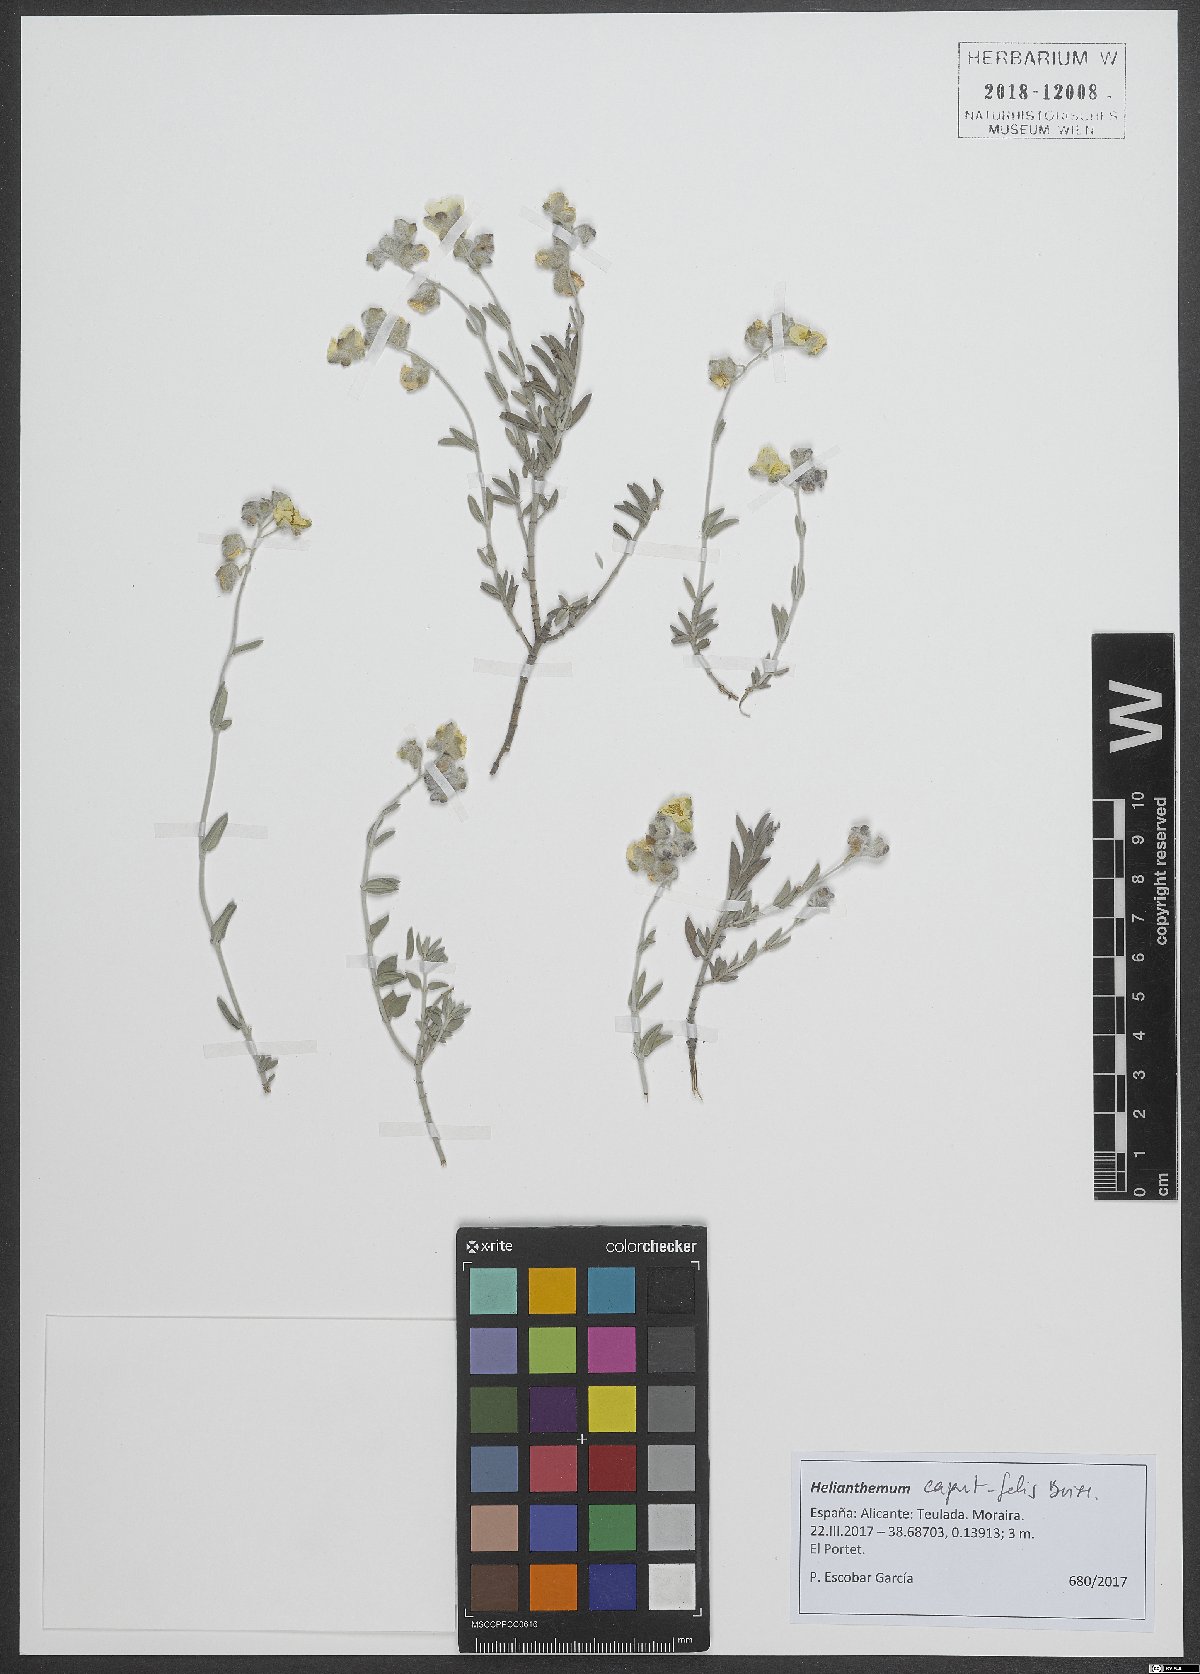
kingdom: Plantae
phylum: Tracheophyta
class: Magnoliopsida
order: Malvales
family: Cistaceae
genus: Helianthemum
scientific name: Helianthemum caput-felis
